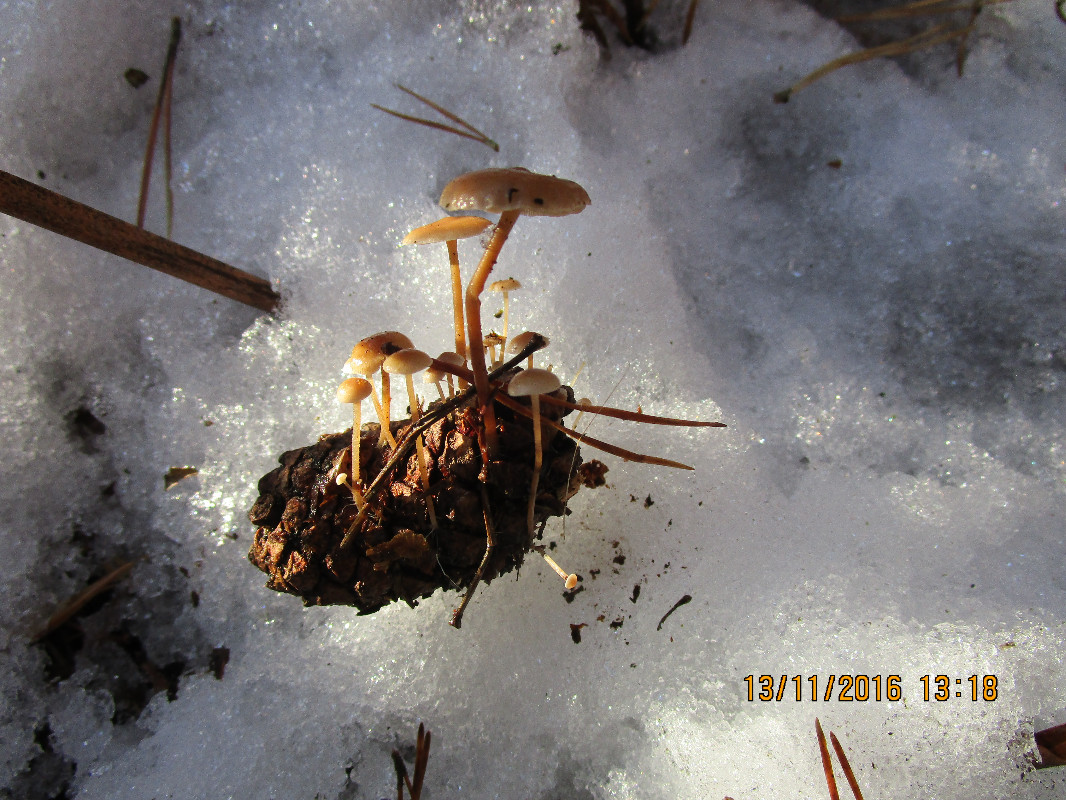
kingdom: Fungi
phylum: Basidiomycota
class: Agaricomycetes
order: Agaricales
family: Marasmiaceae
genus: Baeospora
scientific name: Baeospora myosura
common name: koglebruskhat
